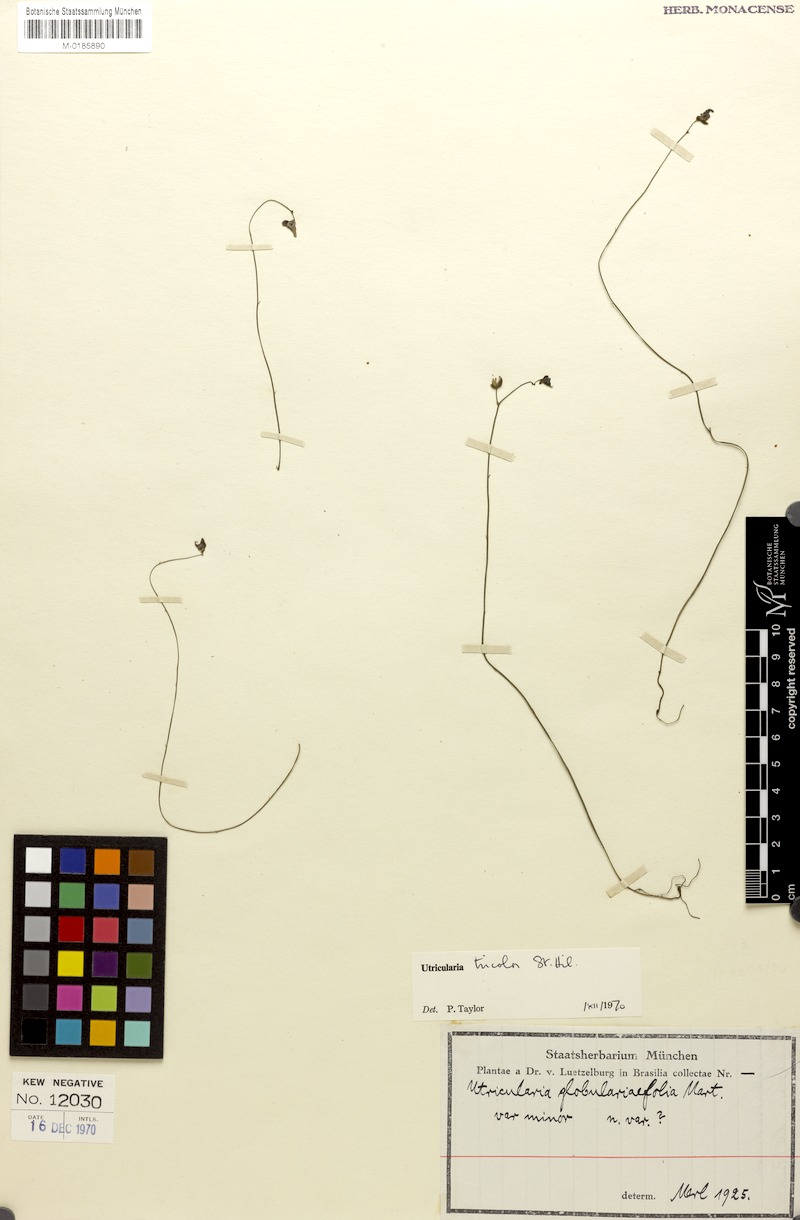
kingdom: Plantae
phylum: Tracheophyta
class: Magnoliopsida
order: Lamiales
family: Lentibulariaceae
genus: Utricularia
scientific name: Utricularia tricolor
